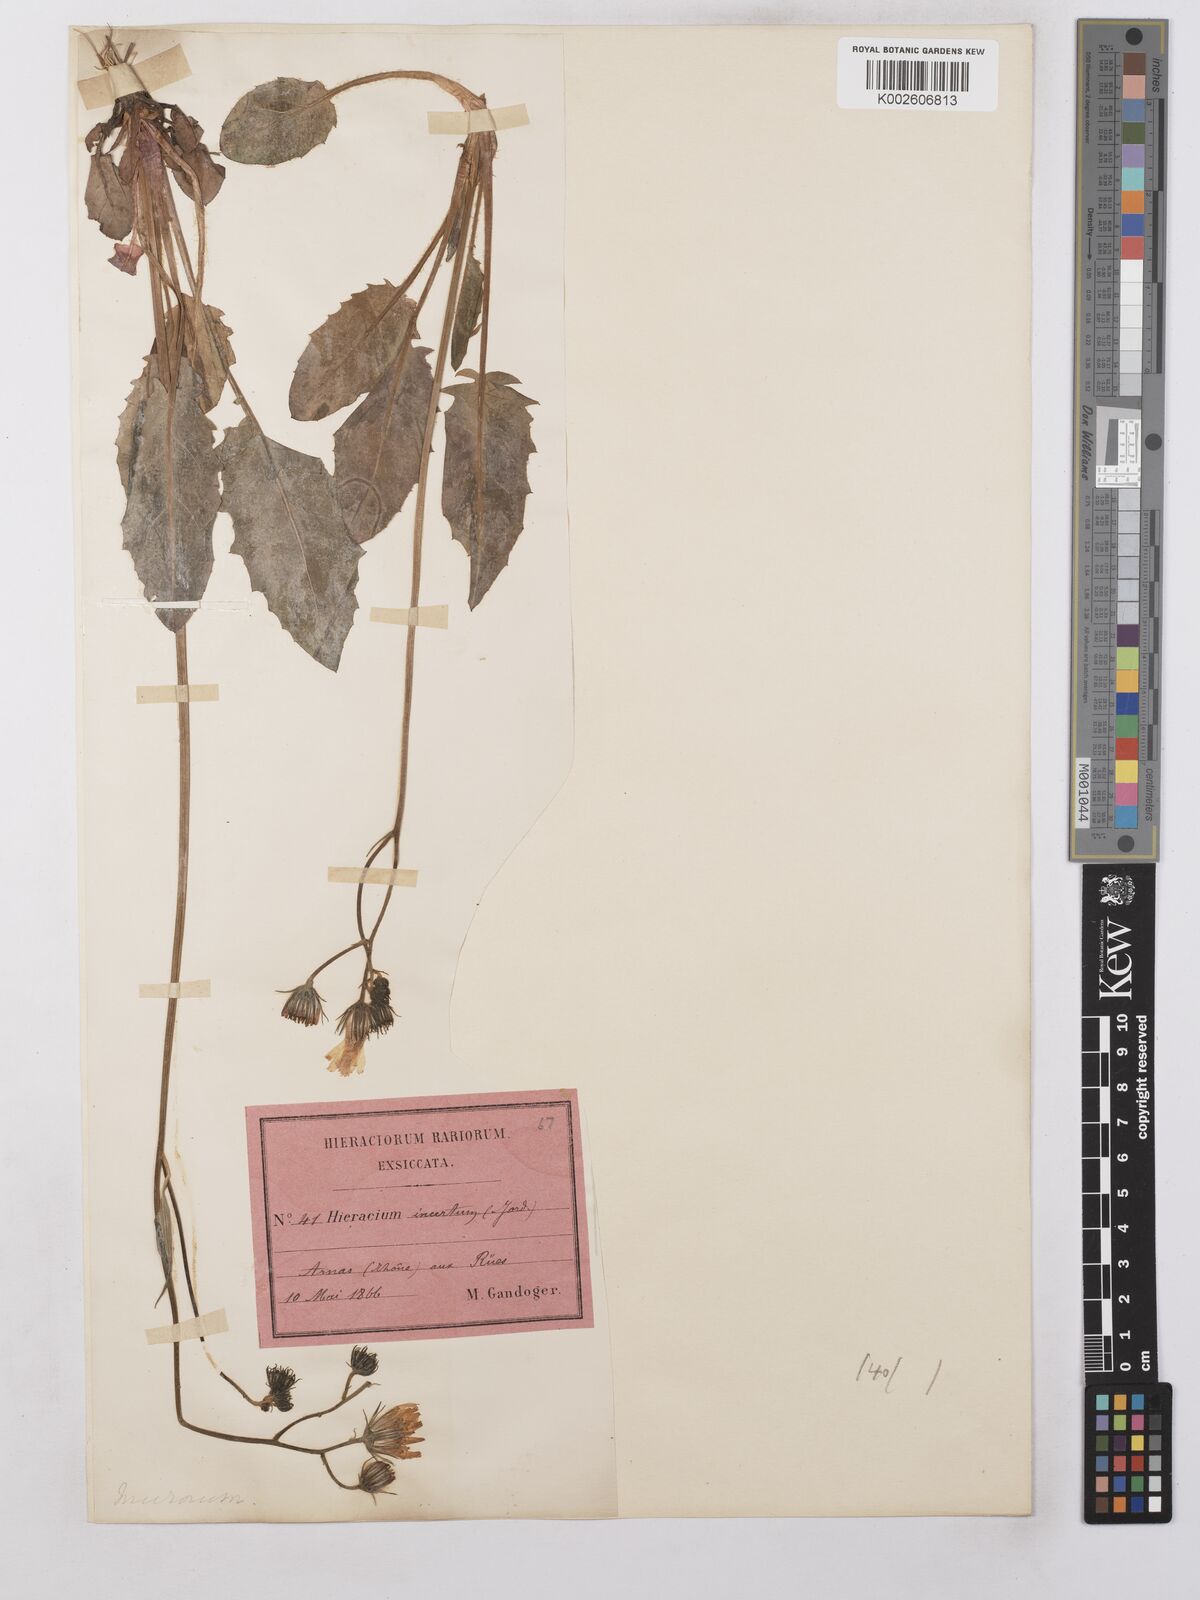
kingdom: Plantae
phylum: Tracheophyta
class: Magnoliopsida
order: Asterales
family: Asteraceae
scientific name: Asteraceae
